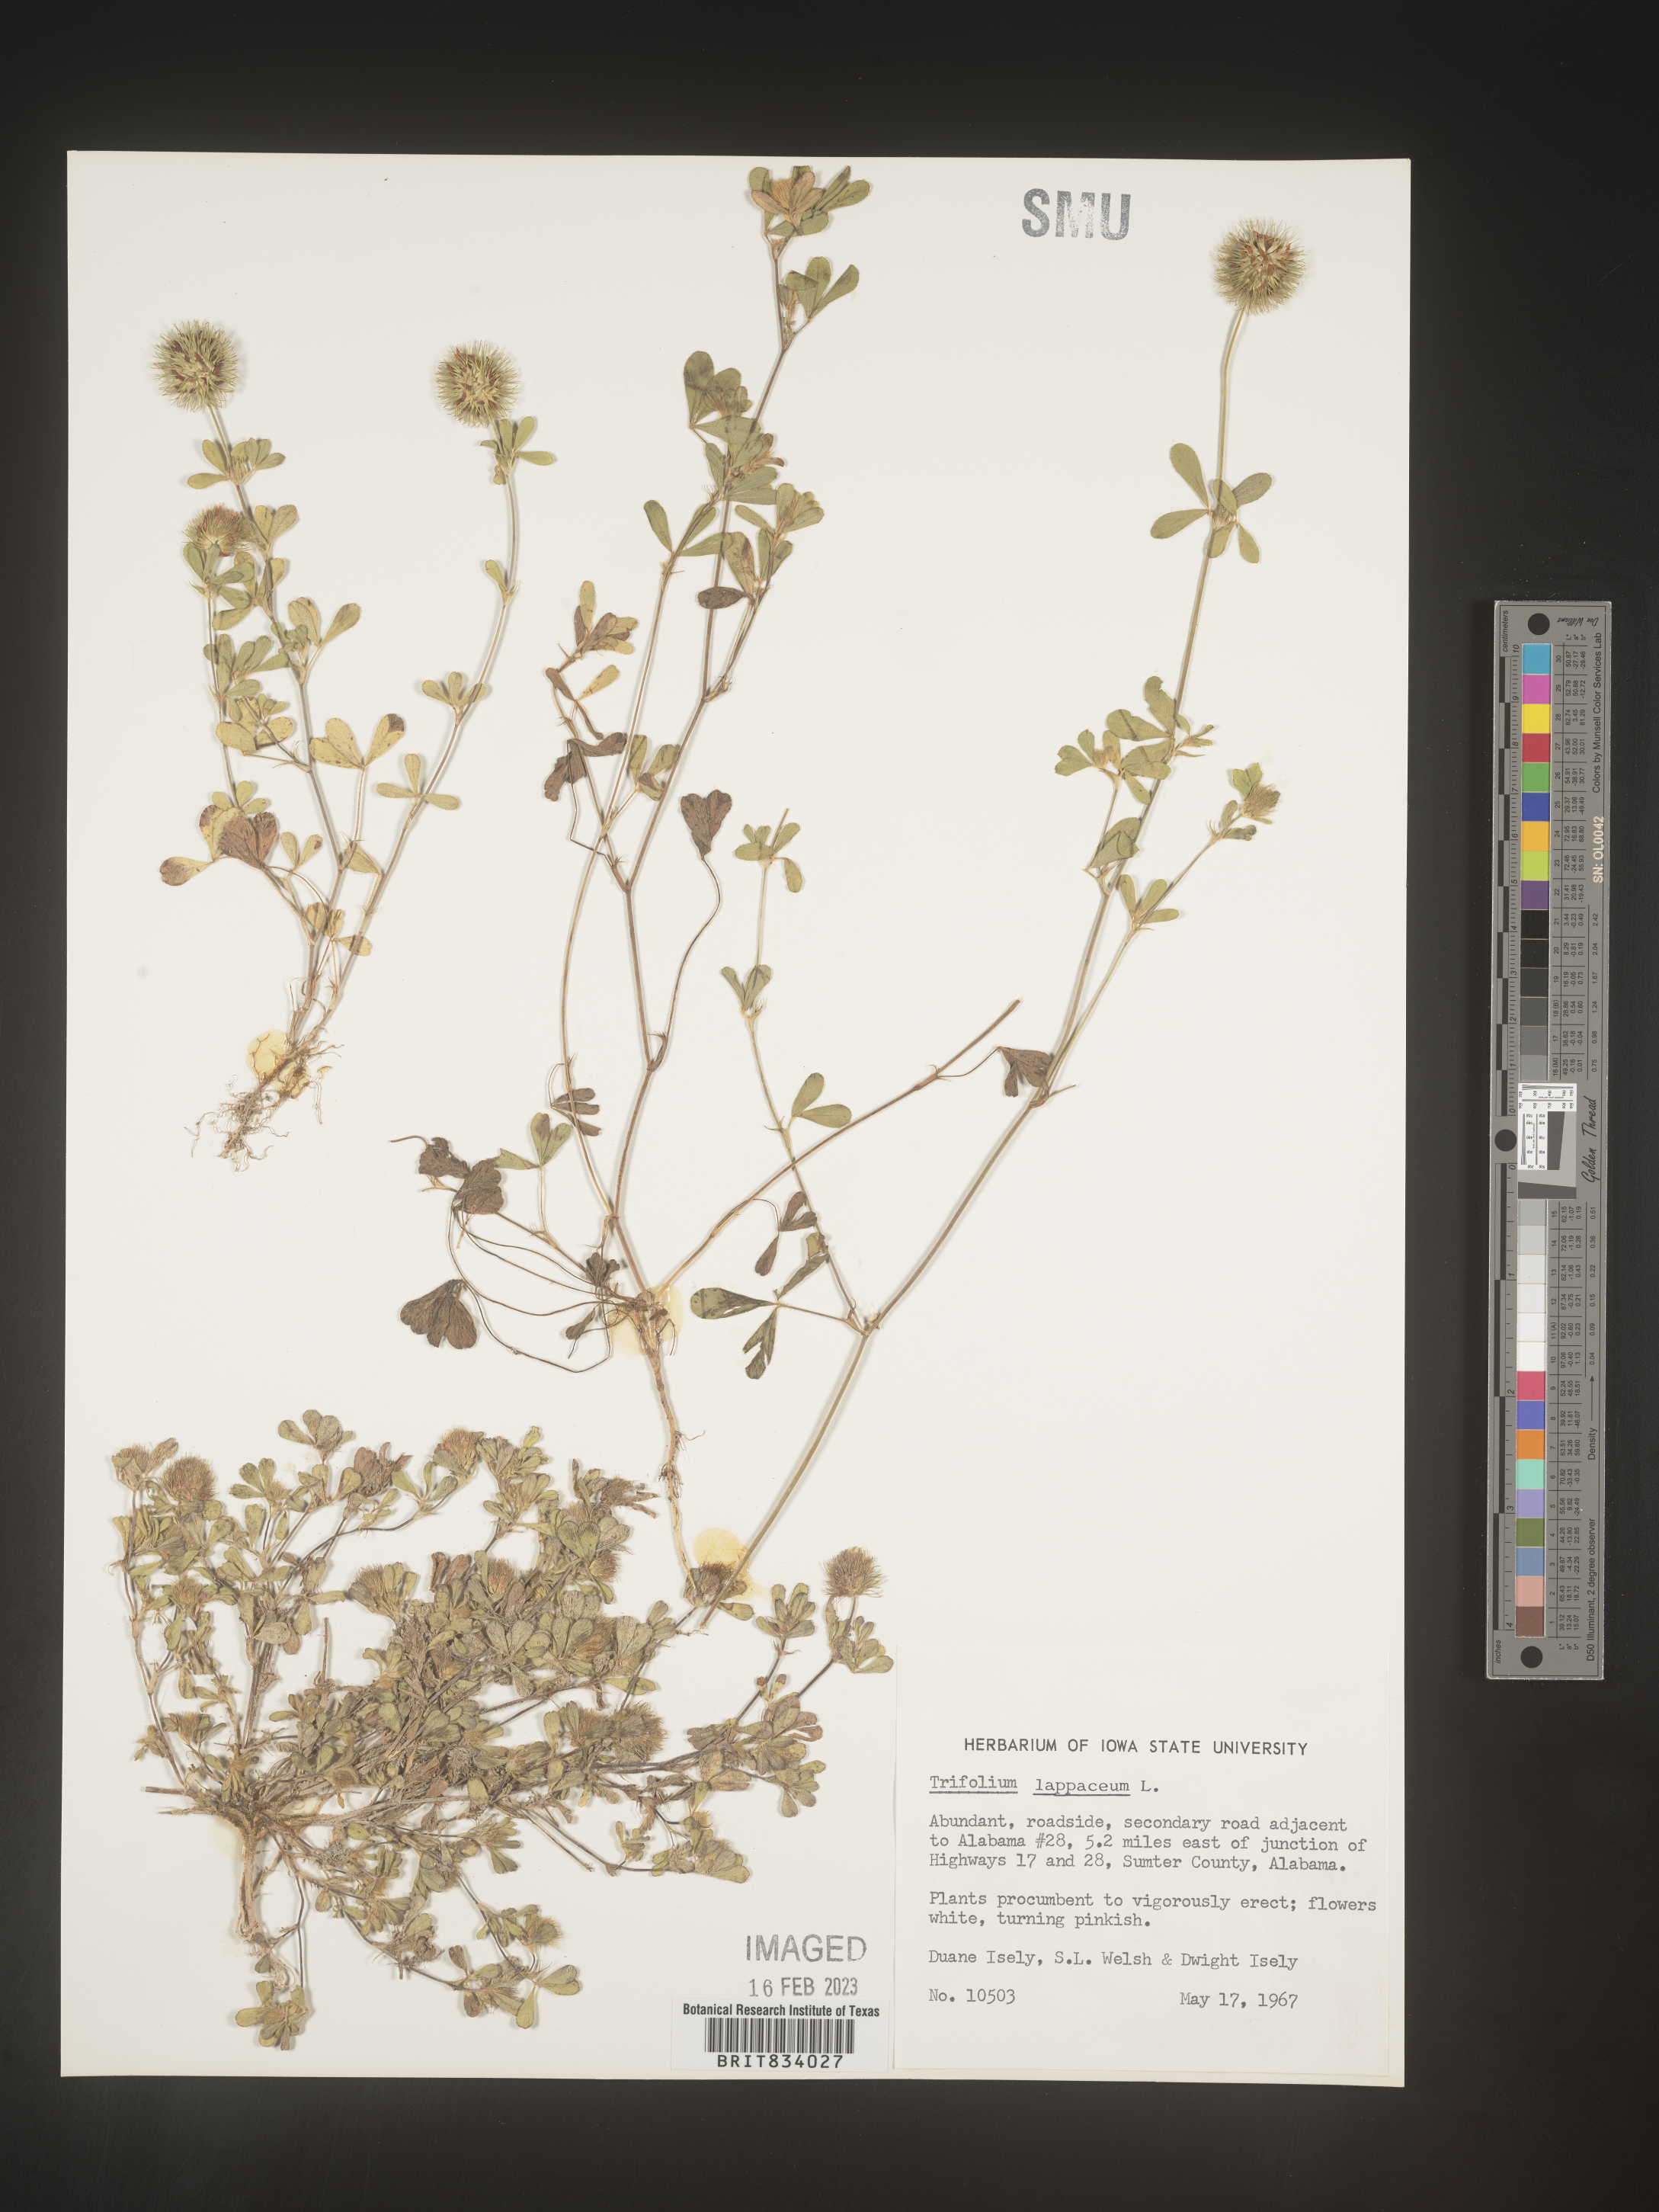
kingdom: Plantae
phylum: Tracheophyta
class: Magnoliopsida
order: Fabales
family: Fabaceae
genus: Trifolium
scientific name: Trifolium
